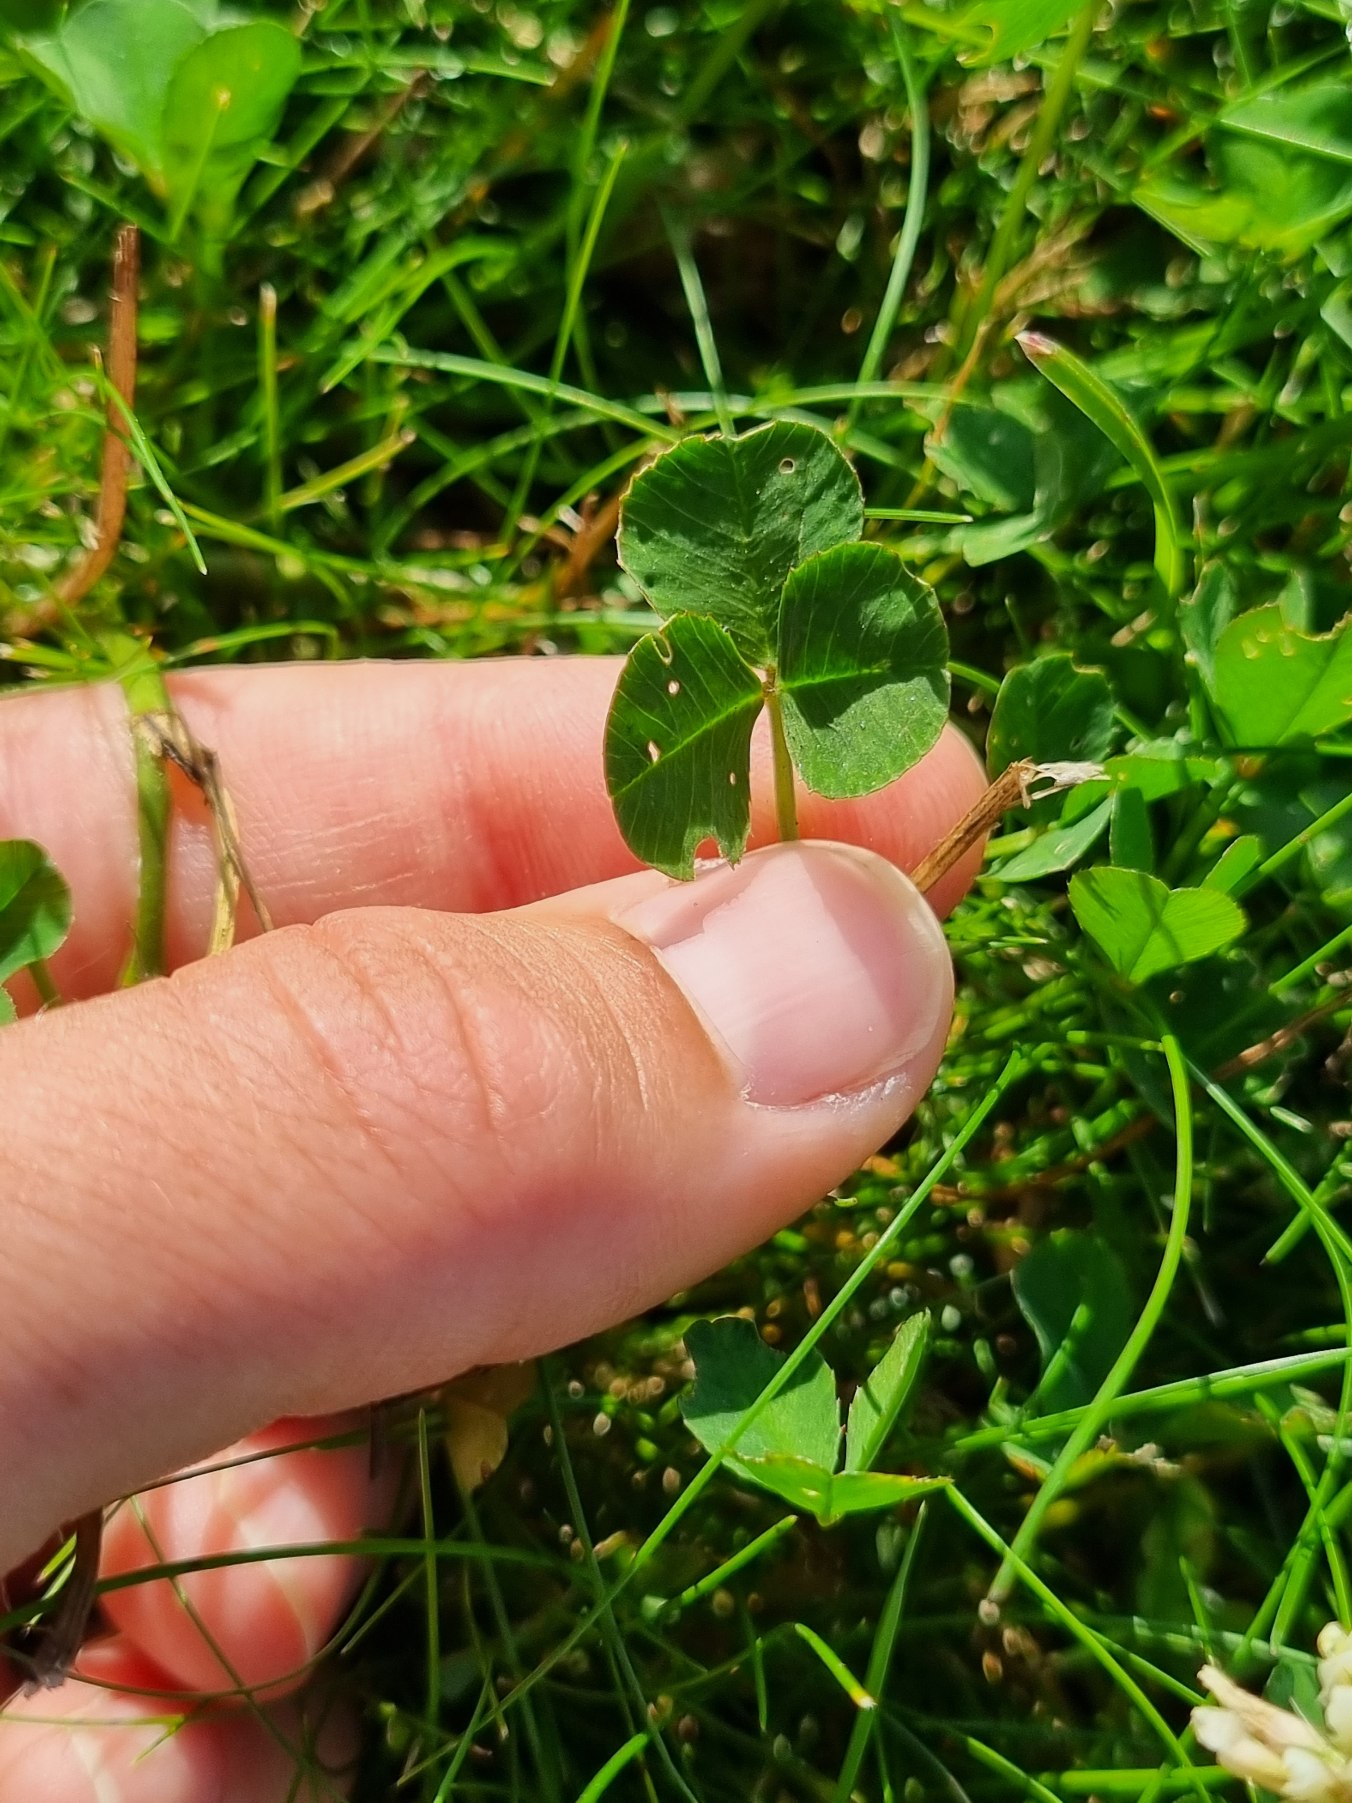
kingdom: Plantae
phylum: Tracheophyta
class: Magnoliopsida
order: Fabales
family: Fabaceae
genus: Trifolium
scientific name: Trifolium repens
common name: Hvid-kløver
